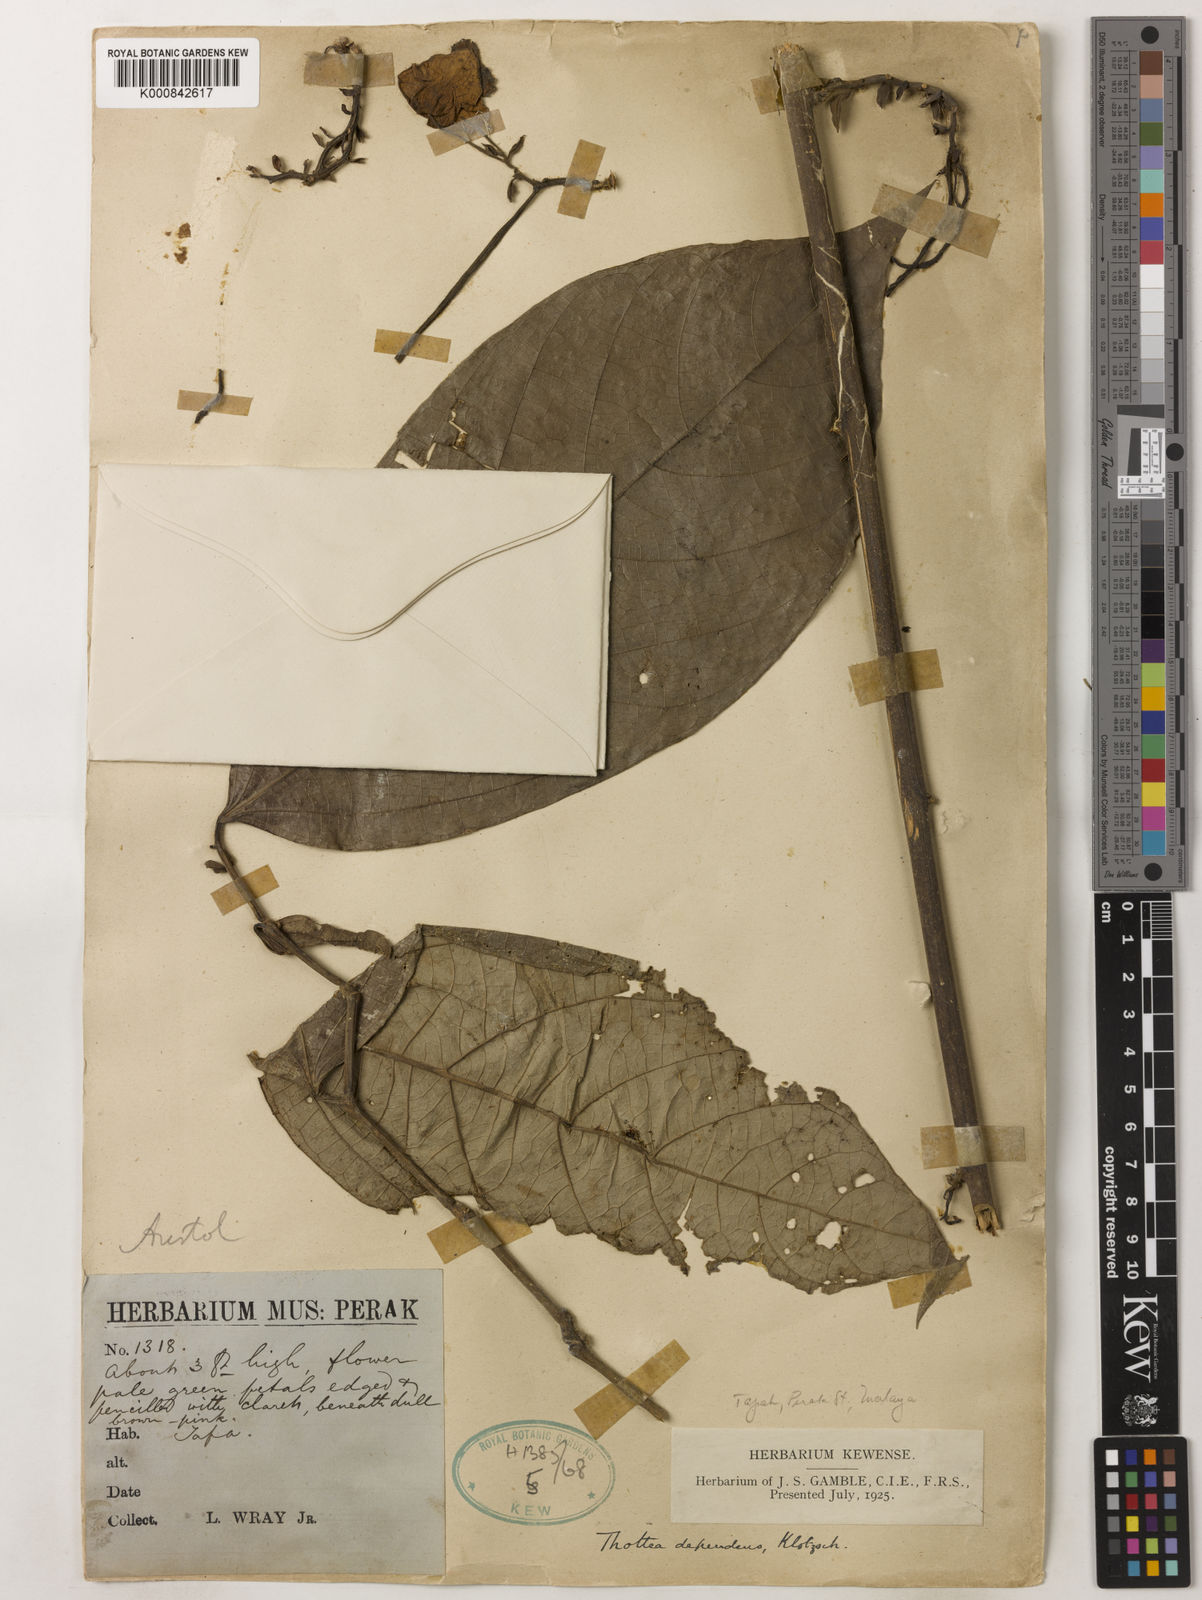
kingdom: Plantae
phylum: Tracheophyta
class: Magnoliopsida
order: Piperales
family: Aristolochiaceae
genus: Thottea
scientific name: Thottea dependens
